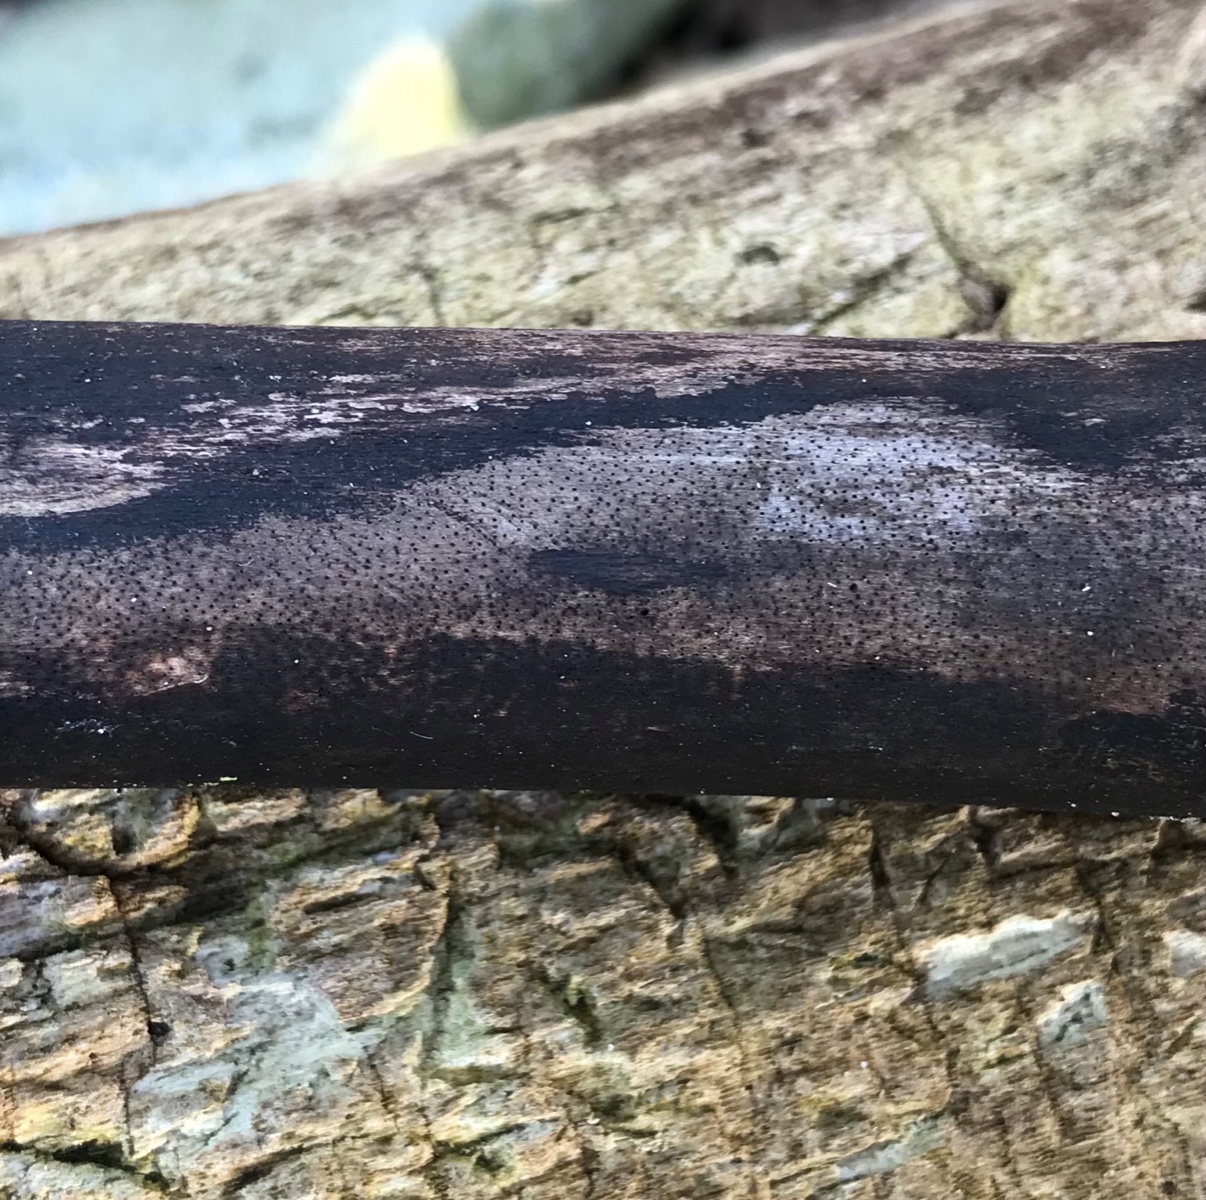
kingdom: Fungi
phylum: Ascomycota
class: Sordariomycetes
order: Xylariales
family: Diatrypaceae
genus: Eutypa
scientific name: Eutypa maura
